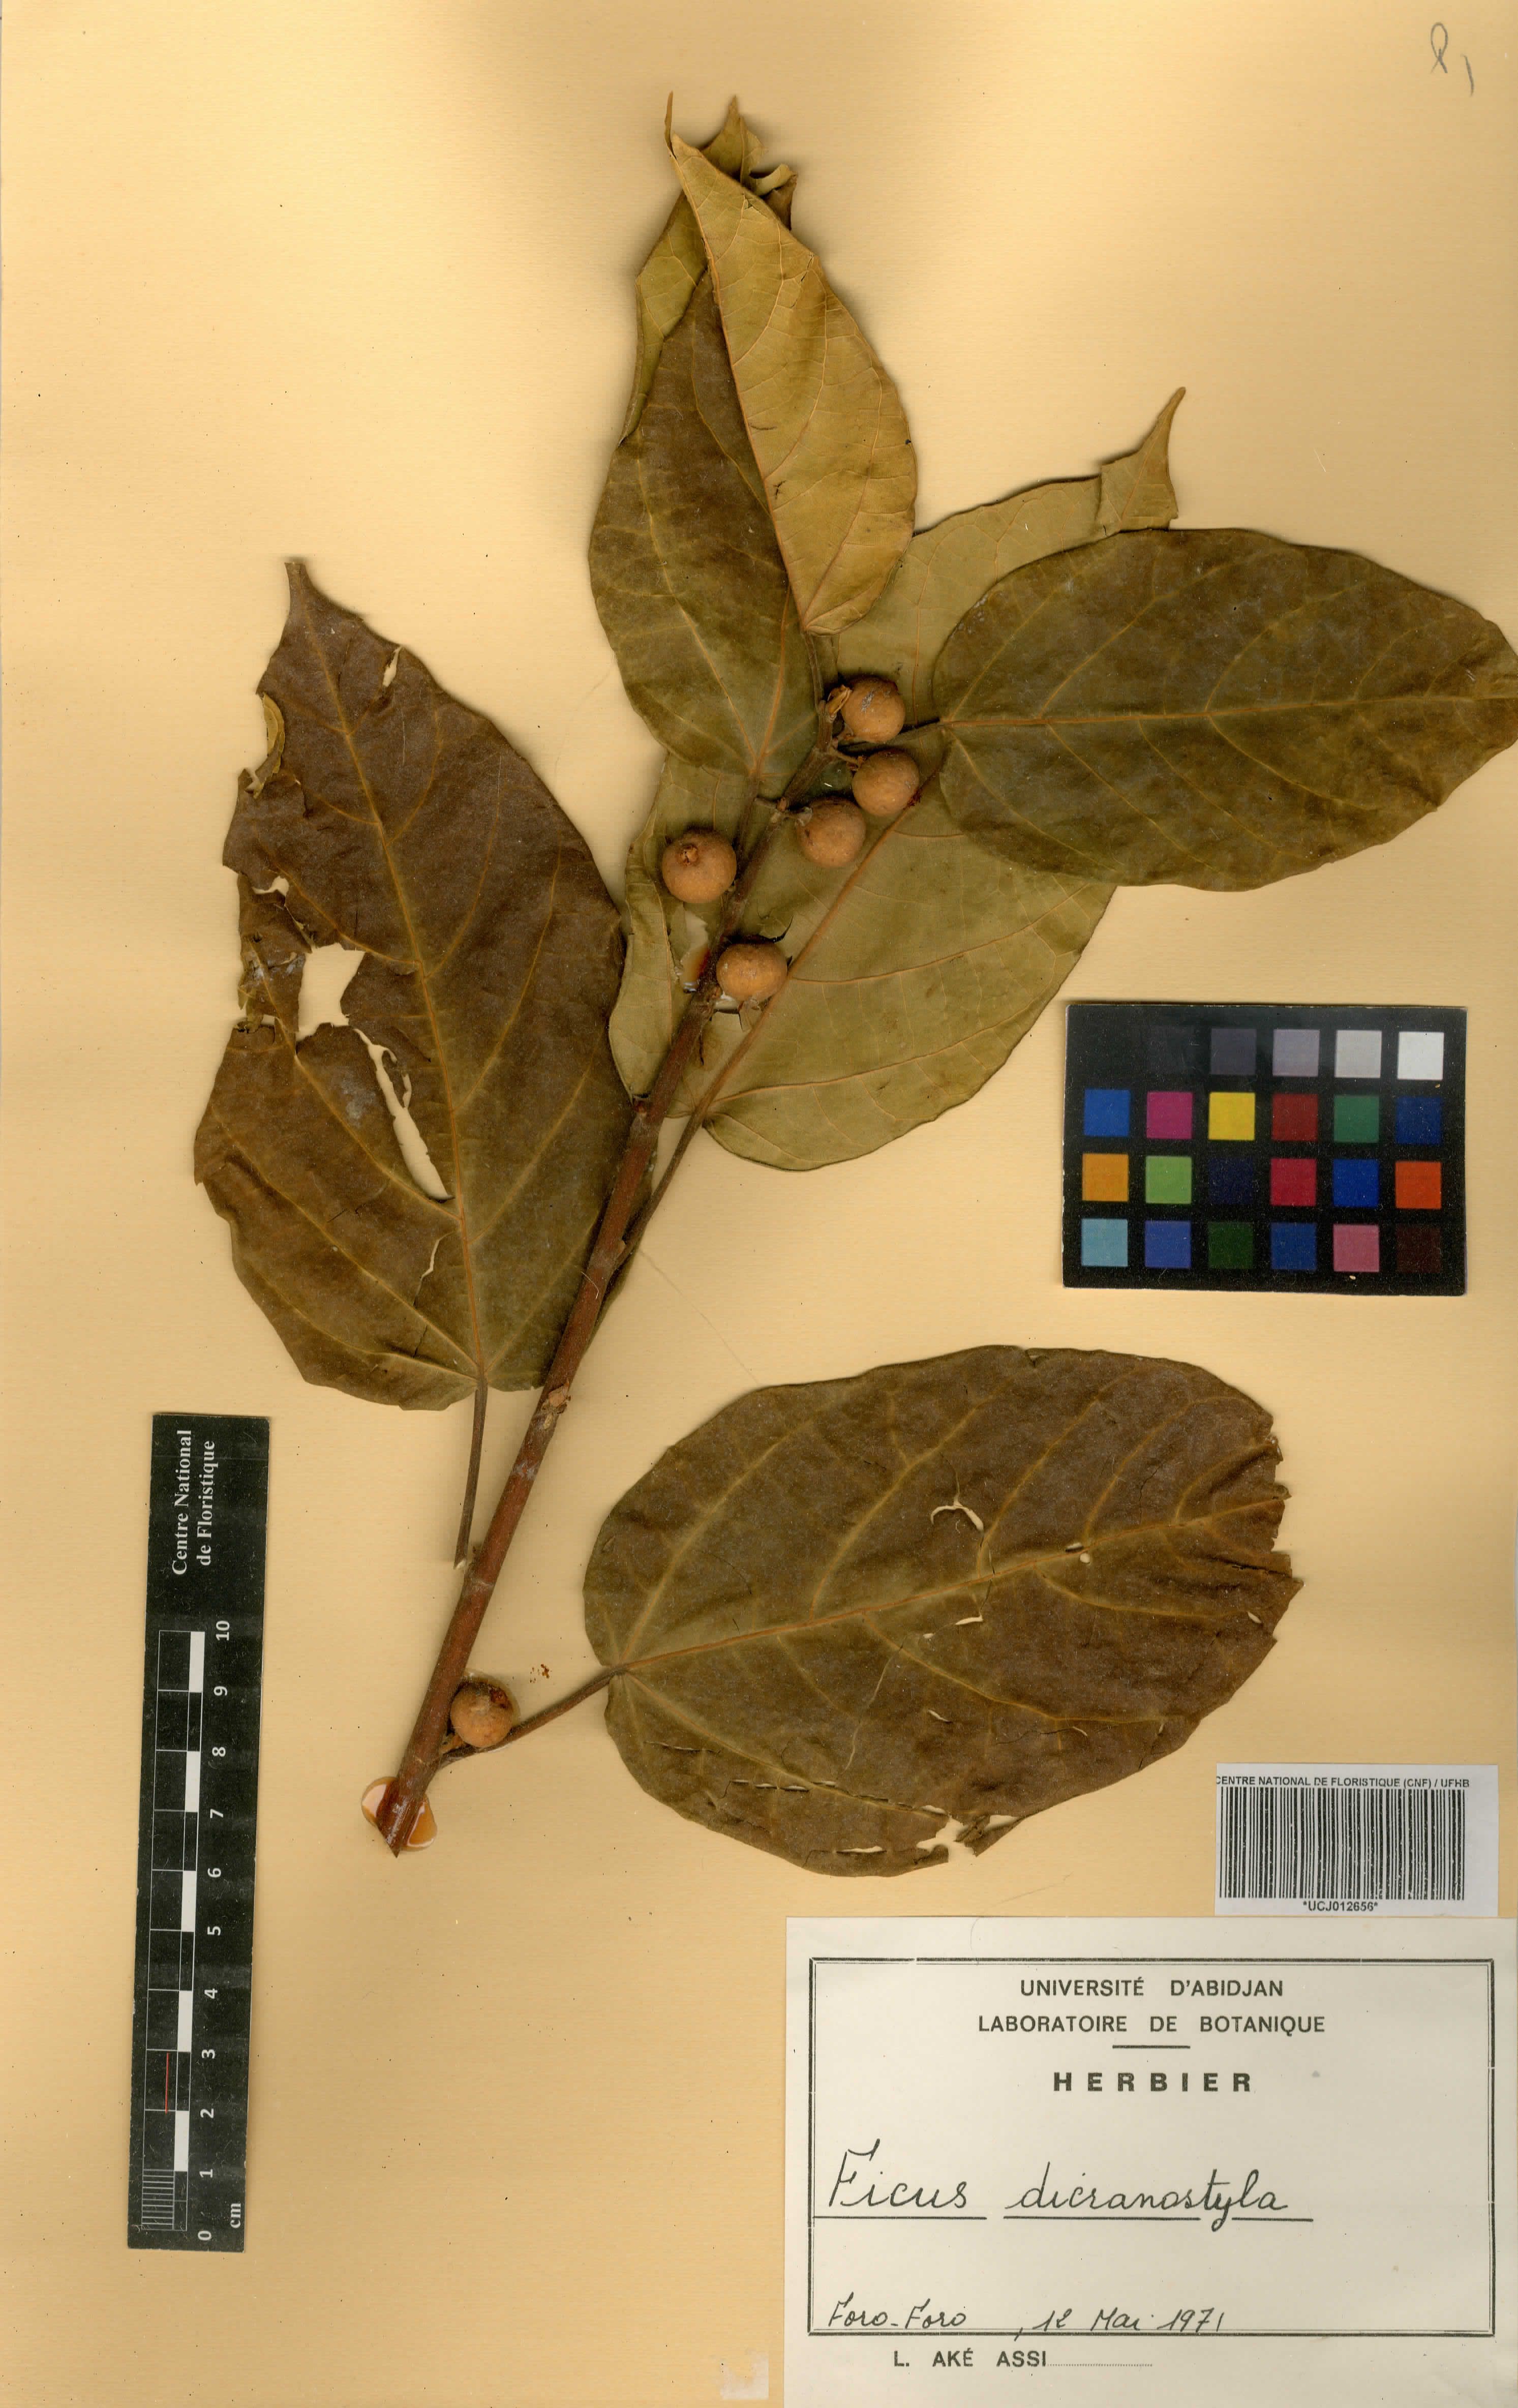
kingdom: Plantae
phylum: Tracheophyta
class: Magnoliopsida
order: Rosales
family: Moraceae
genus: Ficus
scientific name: Ficus dicranostyla
